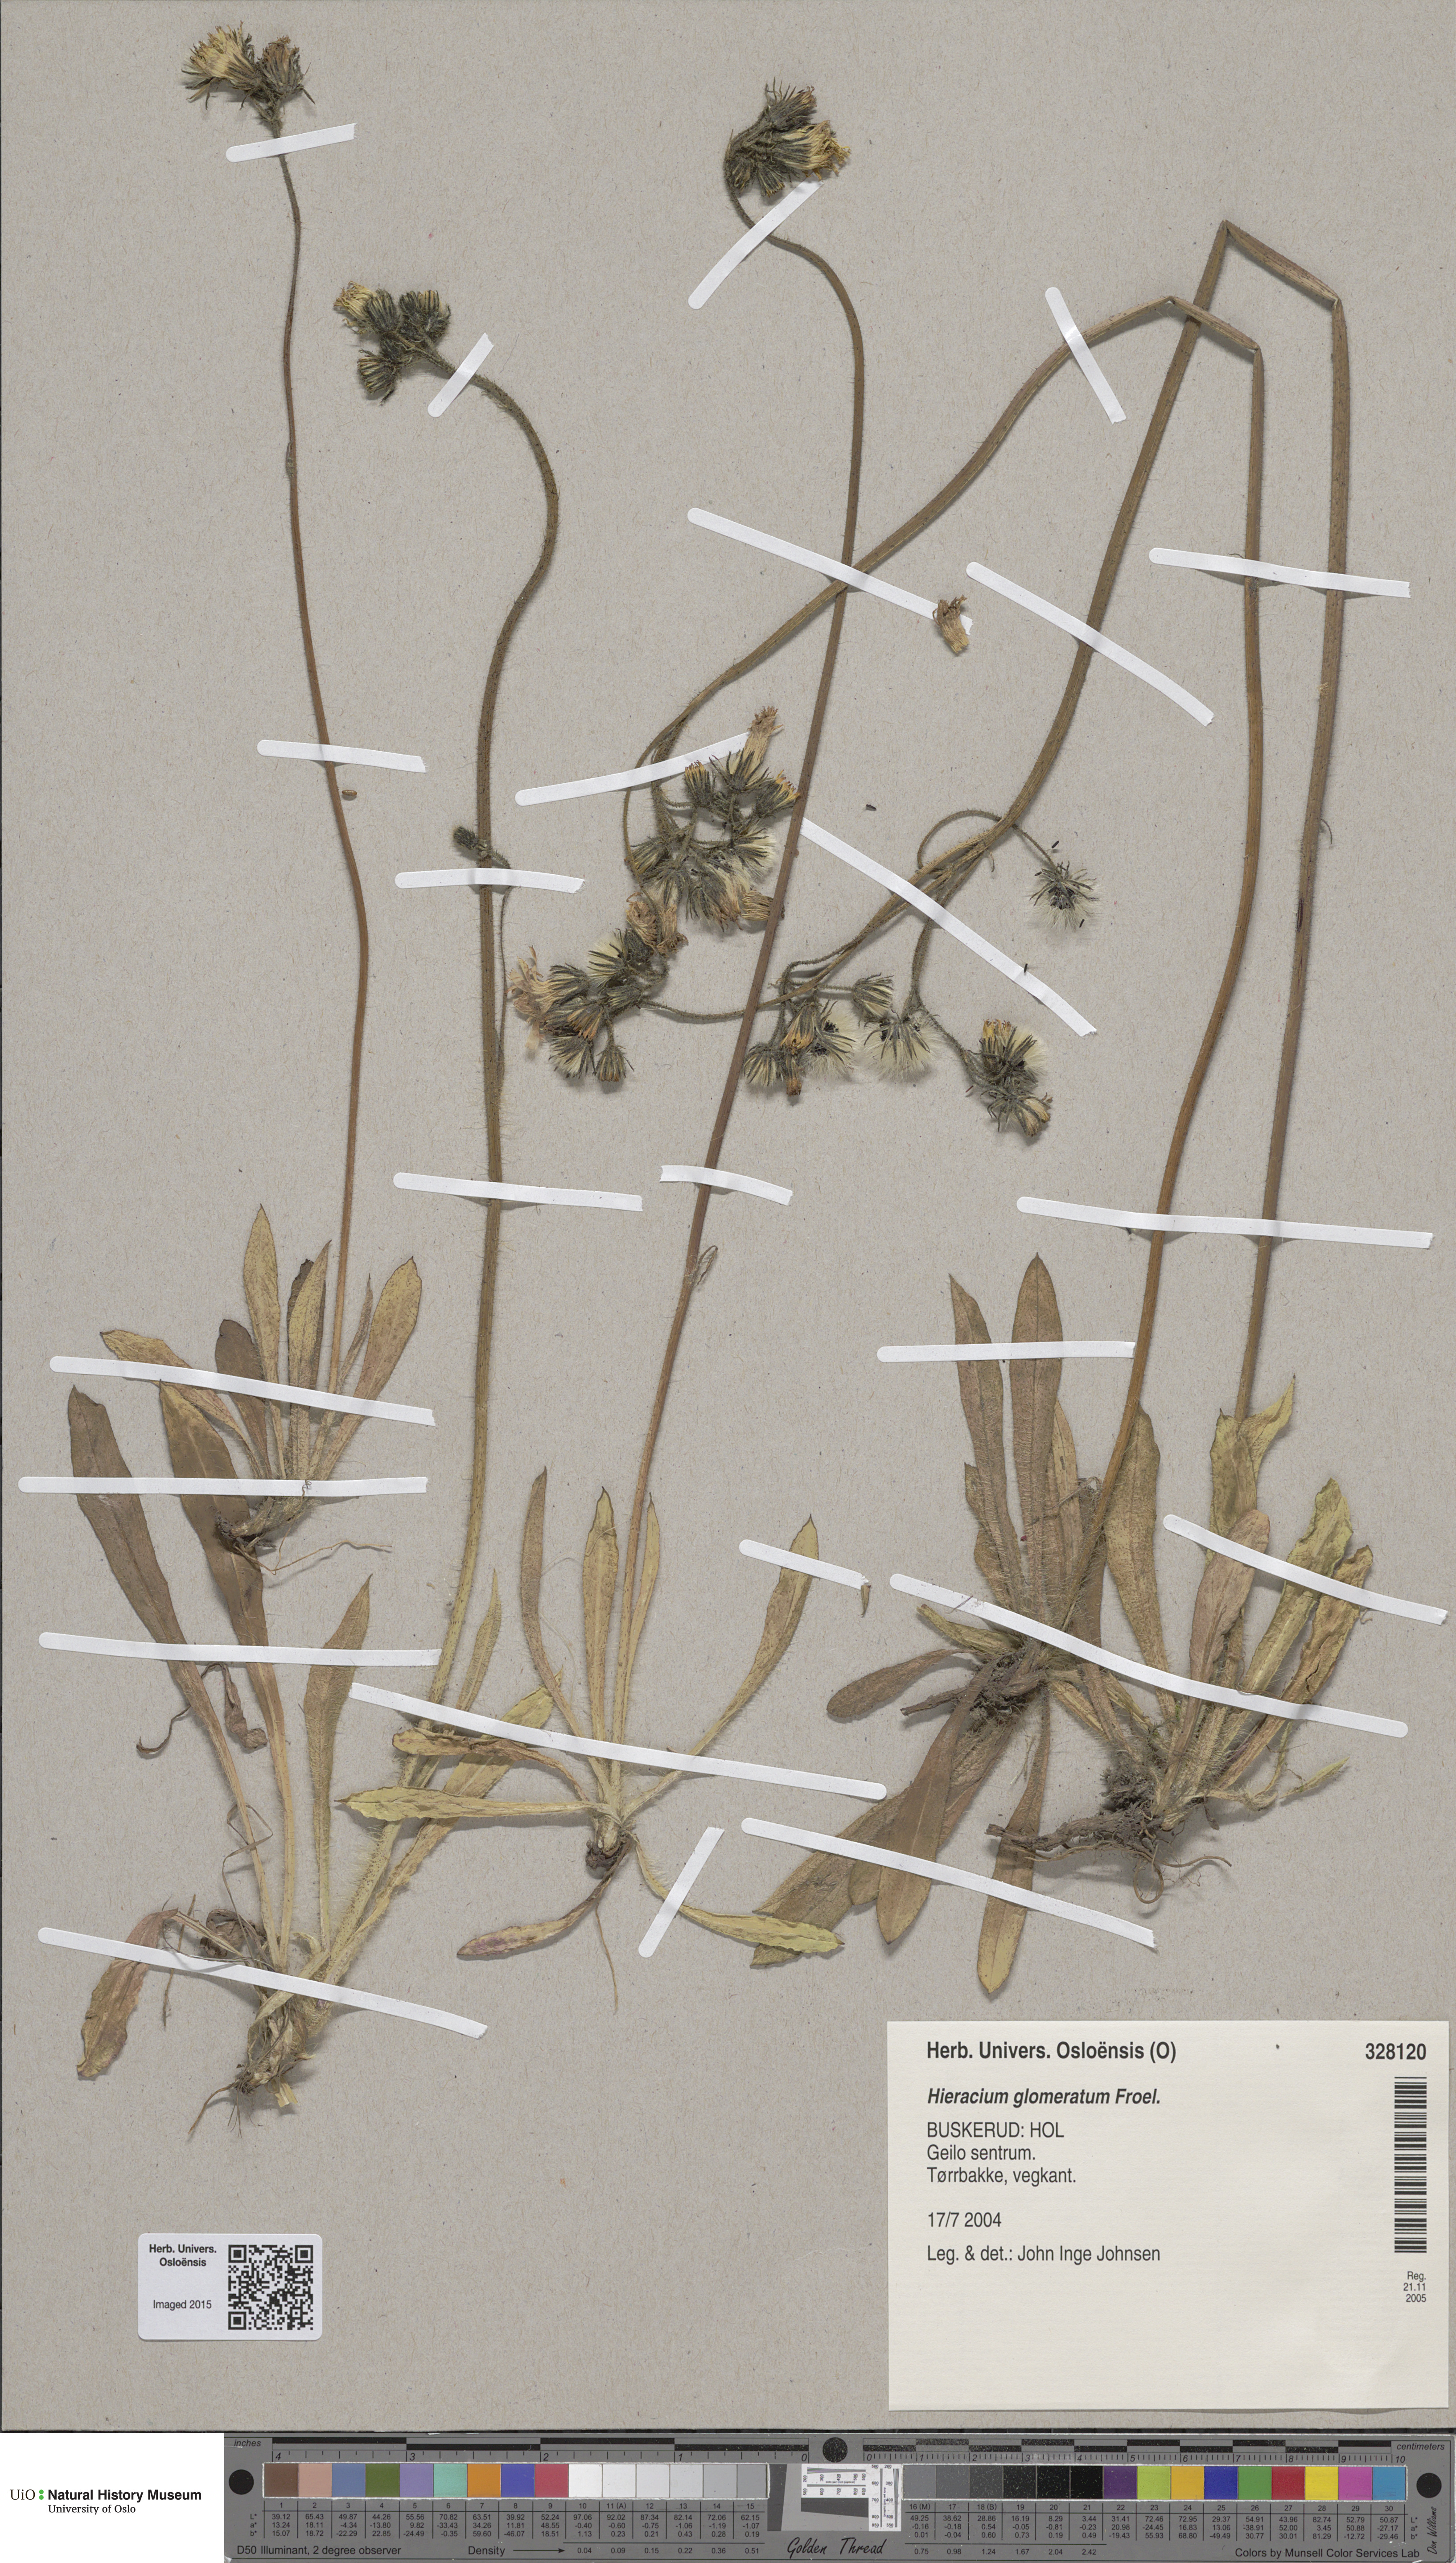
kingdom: Plantae
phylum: Tracheophyta
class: Magnoliopsida
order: Asterales
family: Asteraceae
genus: Pilosella
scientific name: Pilosella glomerata
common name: Queen devil hawkweed
